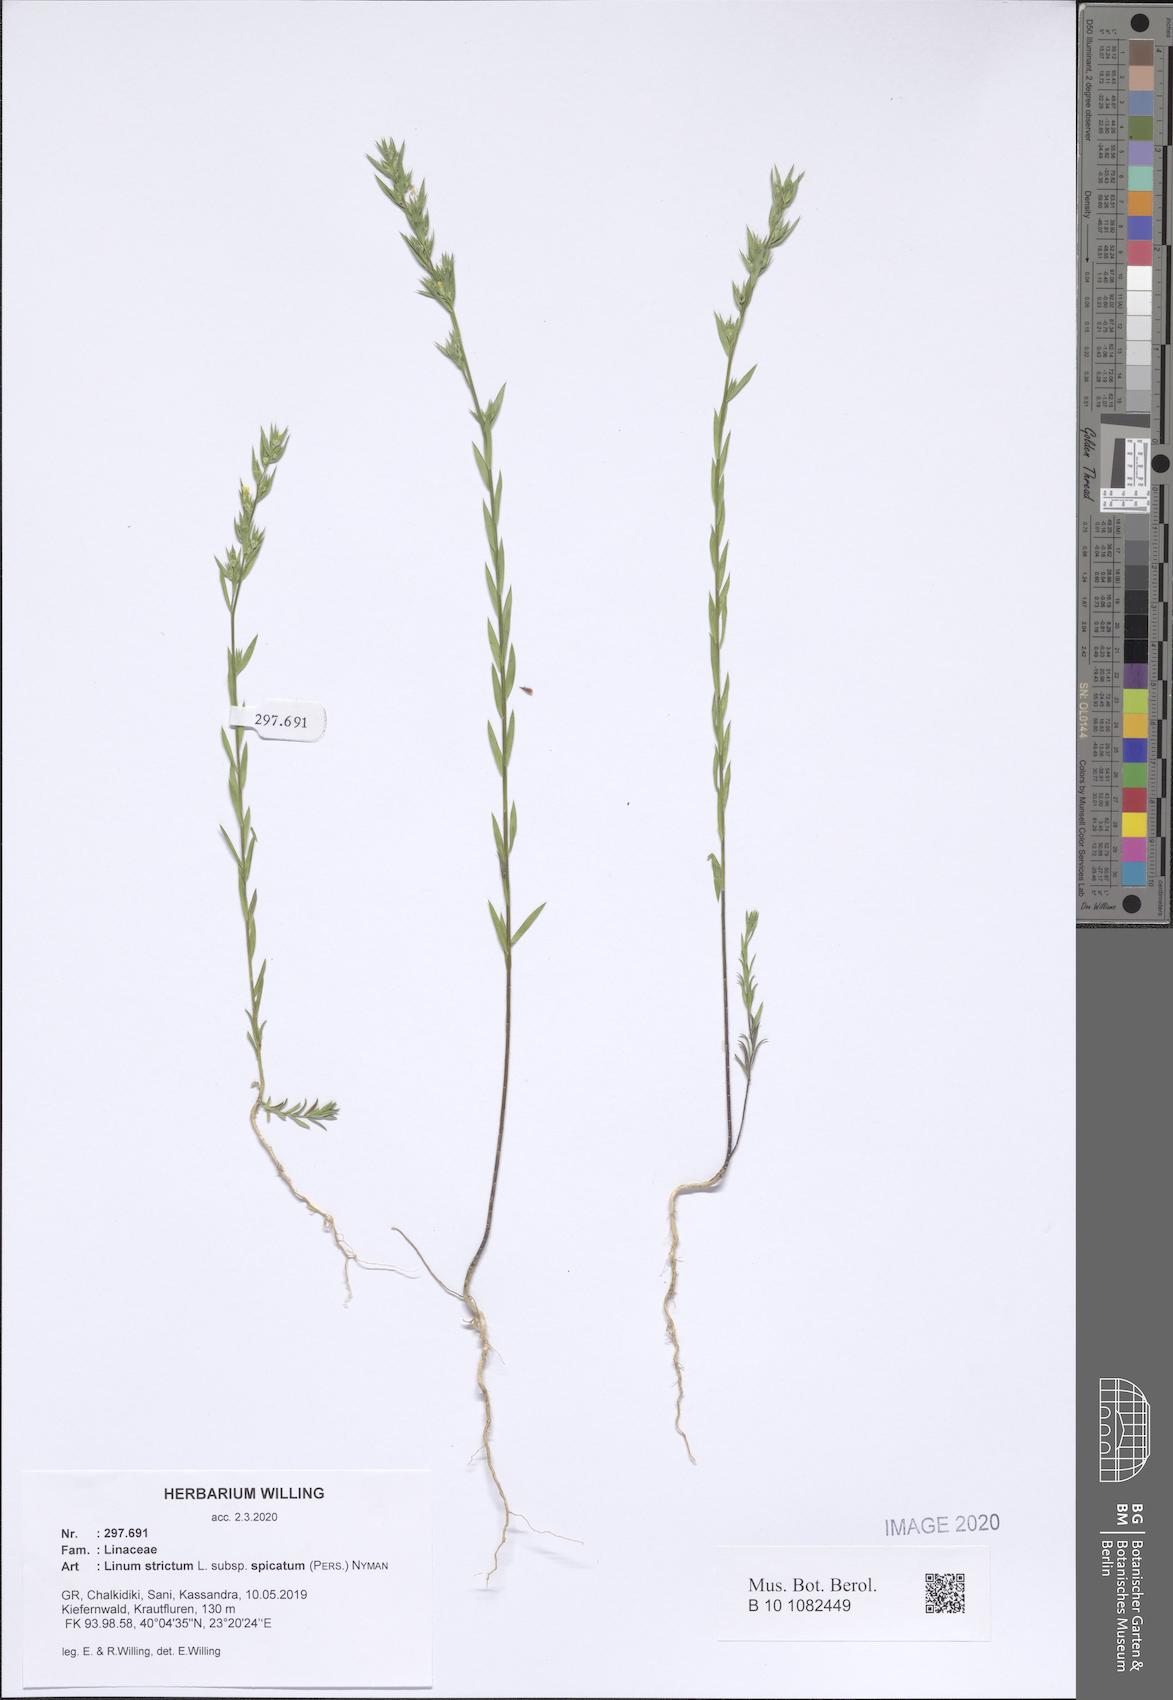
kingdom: Plantae
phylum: Tracheophyta
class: Magnoliopsida
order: Malpighiales
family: Linaceae
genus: Linum
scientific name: Linum strictum
